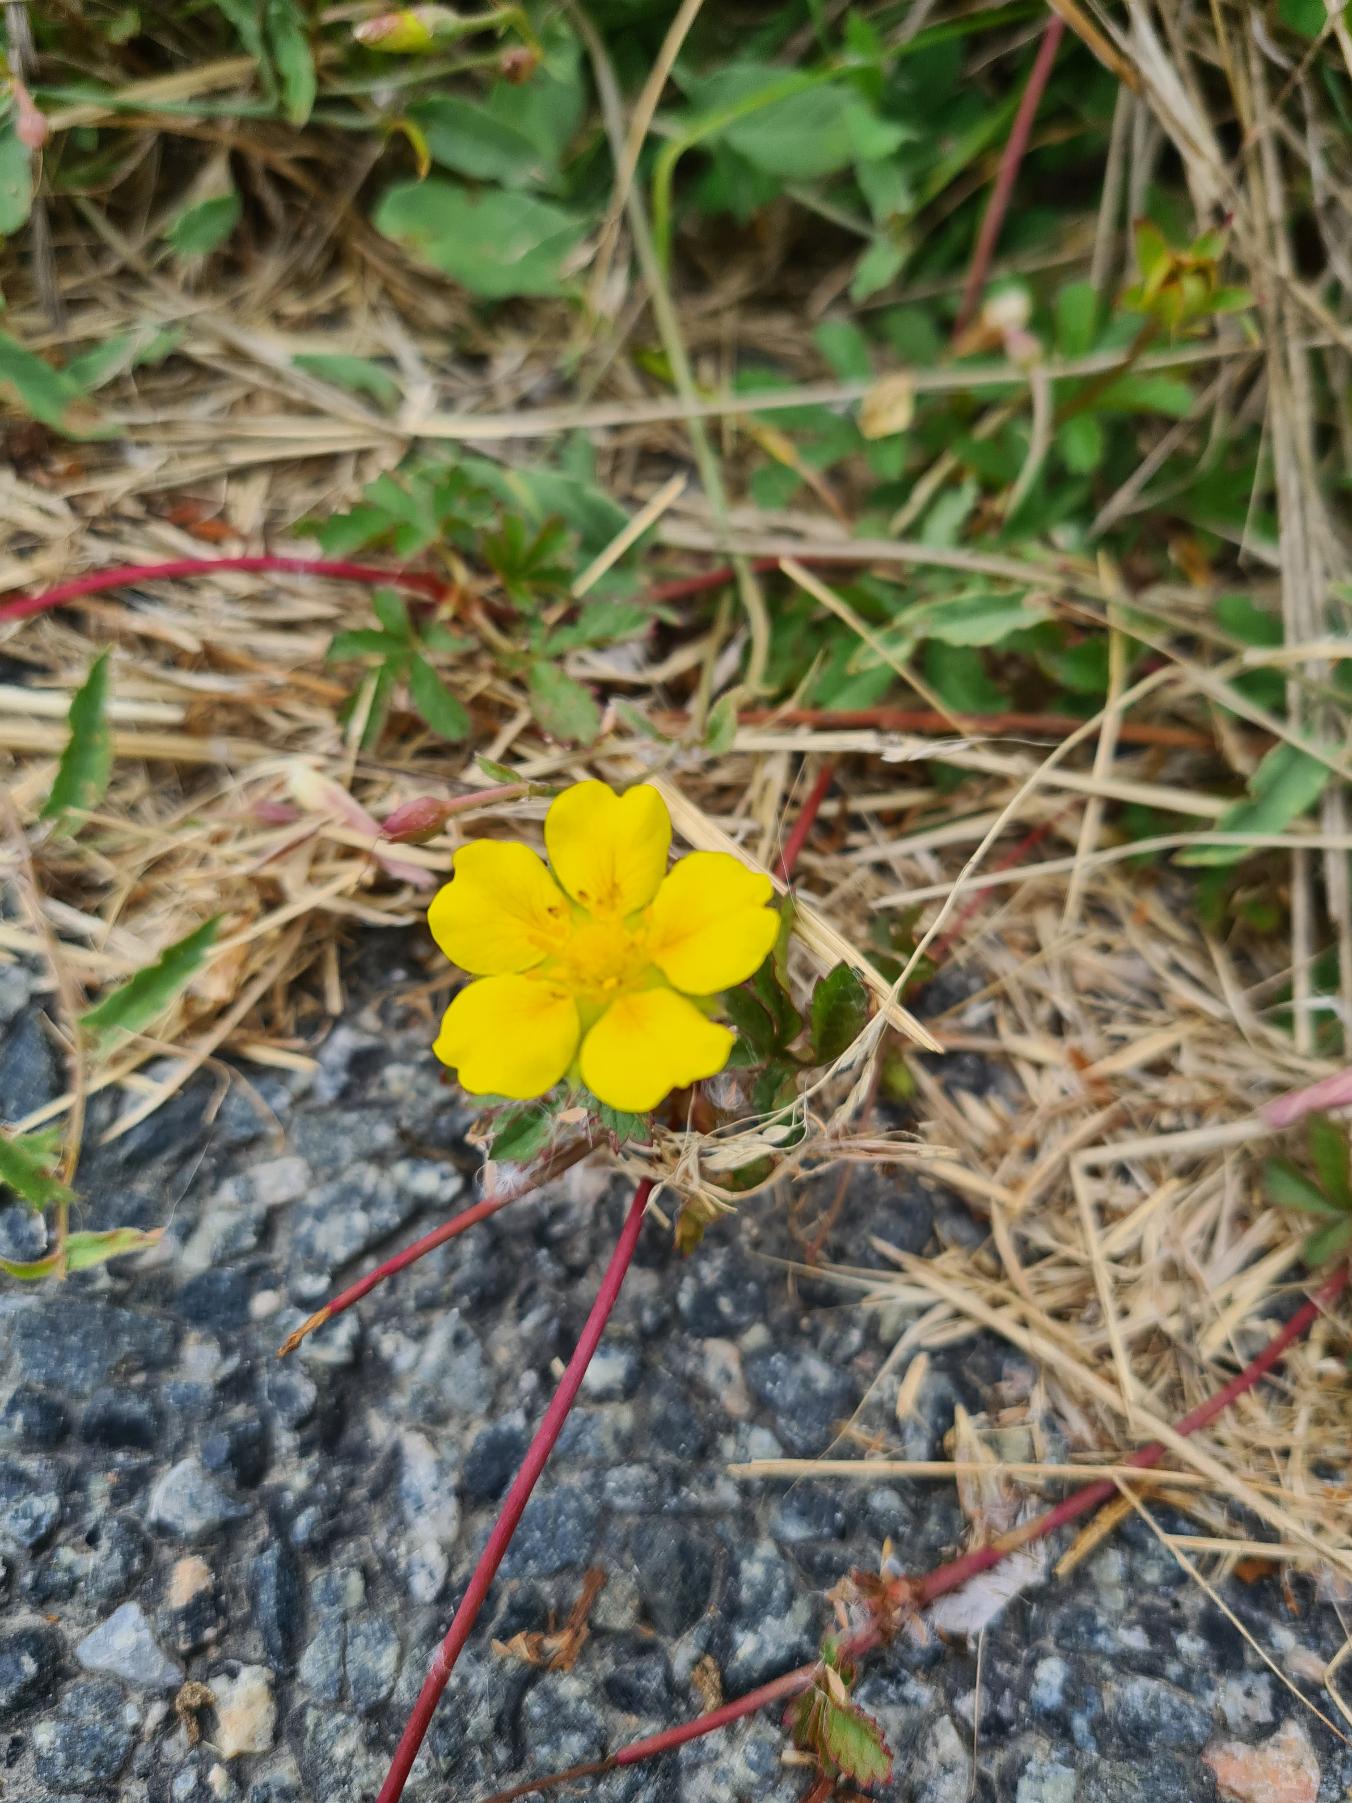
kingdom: Plantae
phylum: Tracheophyta
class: Magnoliopsida
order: Rosales
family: Rosaceae
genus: Potentilla
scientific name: Potentilla reptans
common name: Krybende potentil
